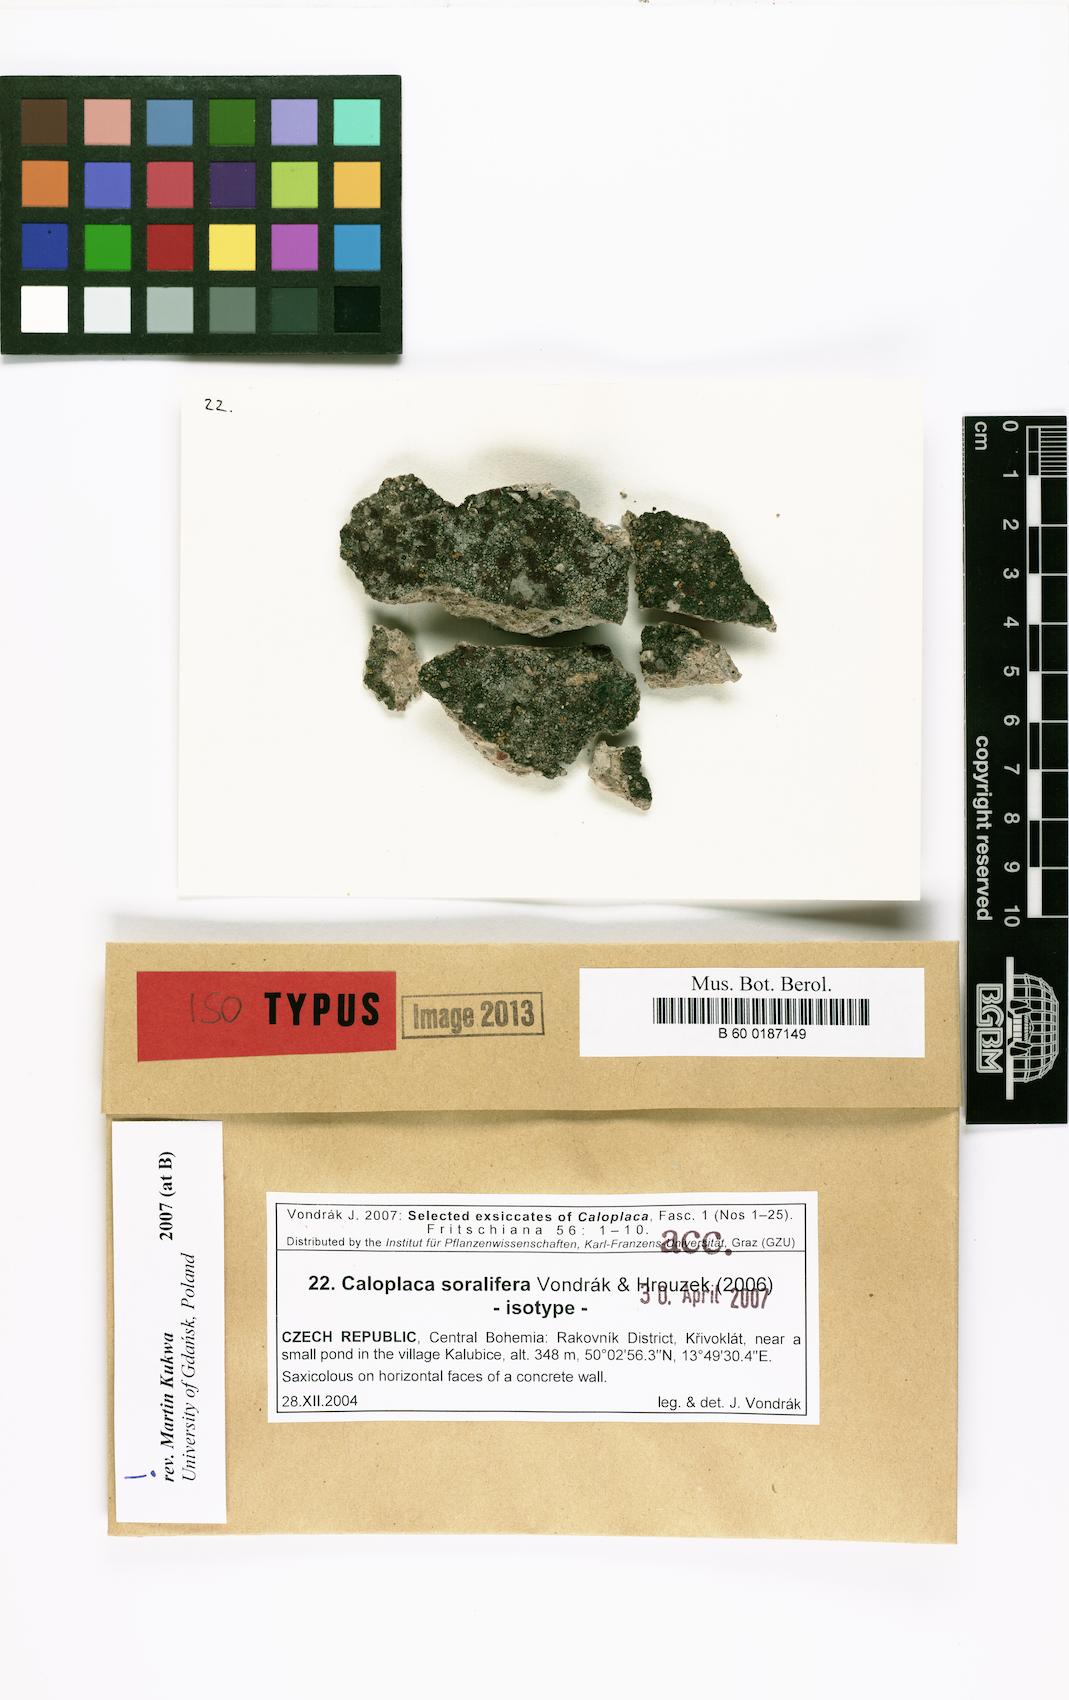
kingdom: Fungi
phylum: Ascomycota
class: Lecanoromycetes
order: Teloschistales
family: Teloschistaceae
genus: Kuettlingeria
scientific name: Kuettlingeria soralifera
